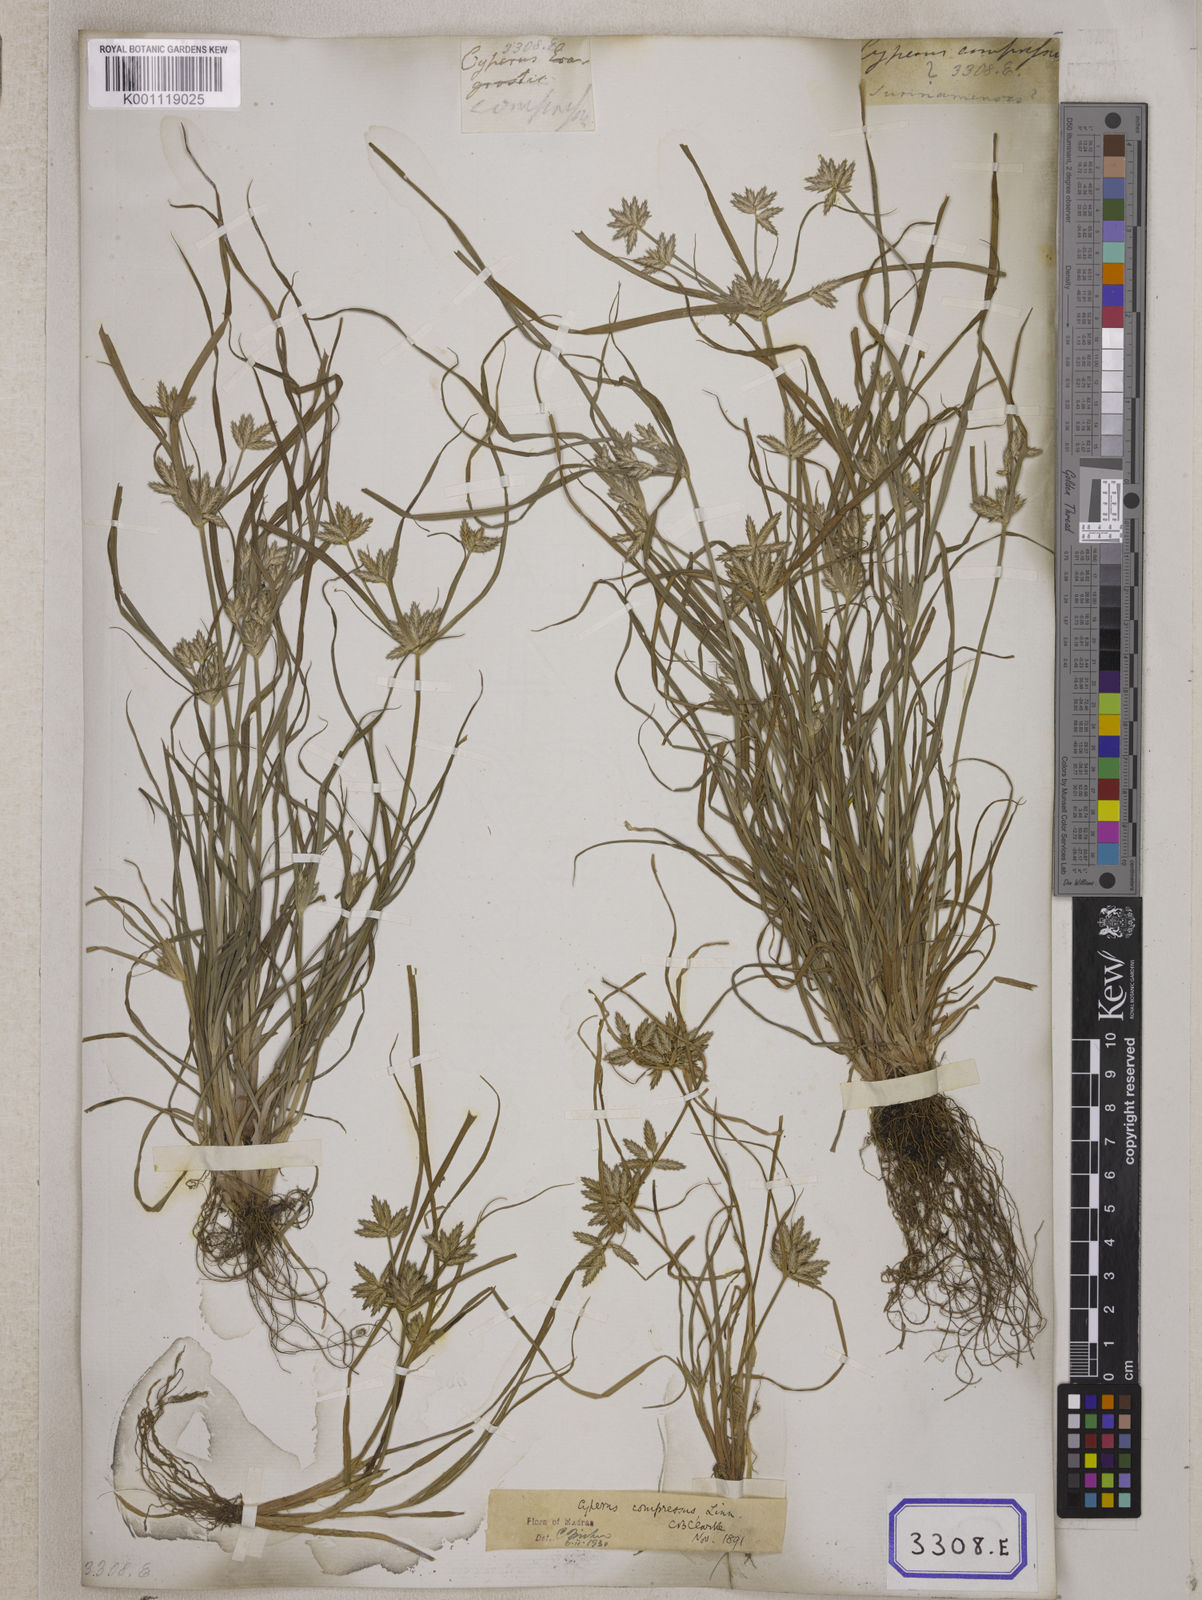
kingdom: Plantae
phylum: Tracheophyta
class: Liliopsida
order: Poales
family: Cyperaceae
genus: Cyperus
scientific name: Cyperus
